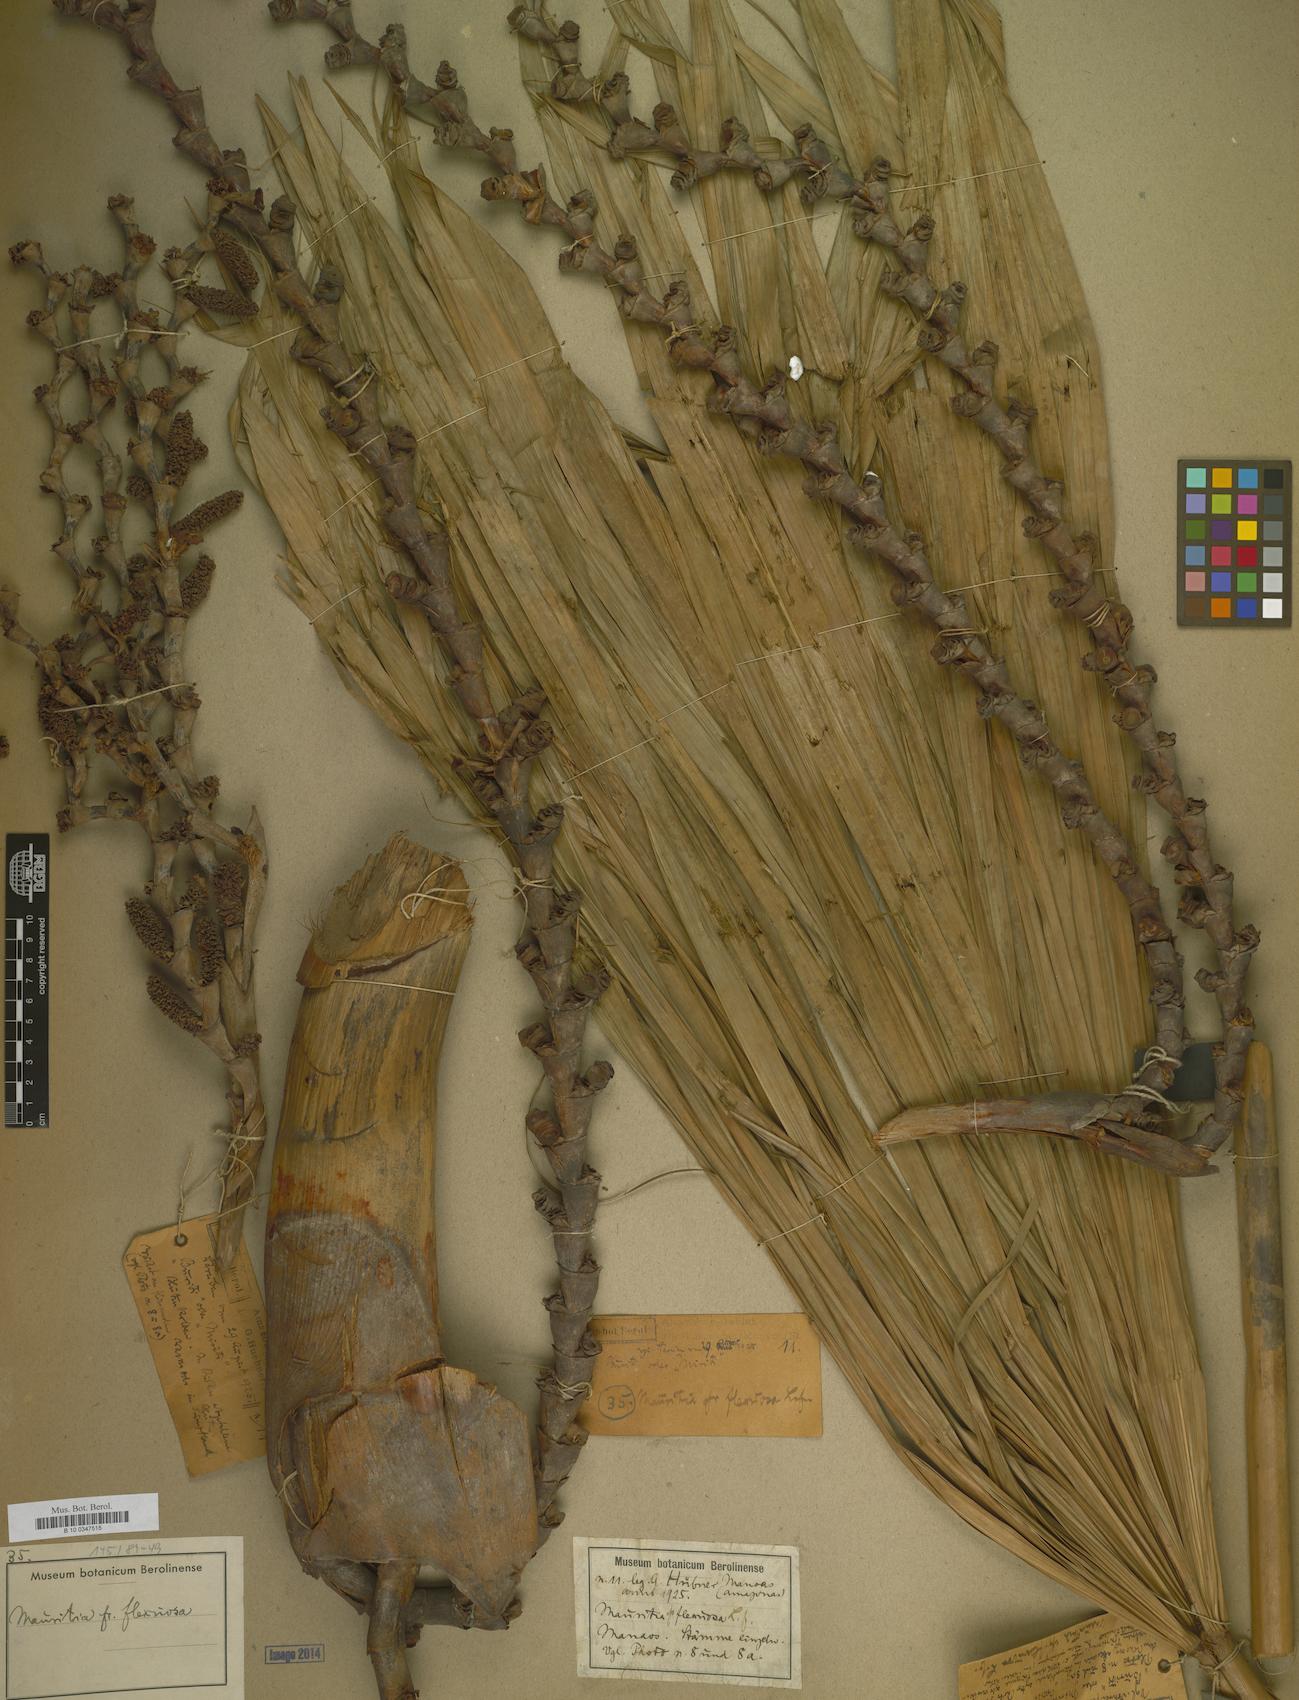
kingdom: Plantae
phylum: Tracheophyta
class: Liliopsida
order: Arecales
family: Arecaceae
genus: Mauritia
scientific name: Mauritia flexuosa
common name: Tree-of-life
